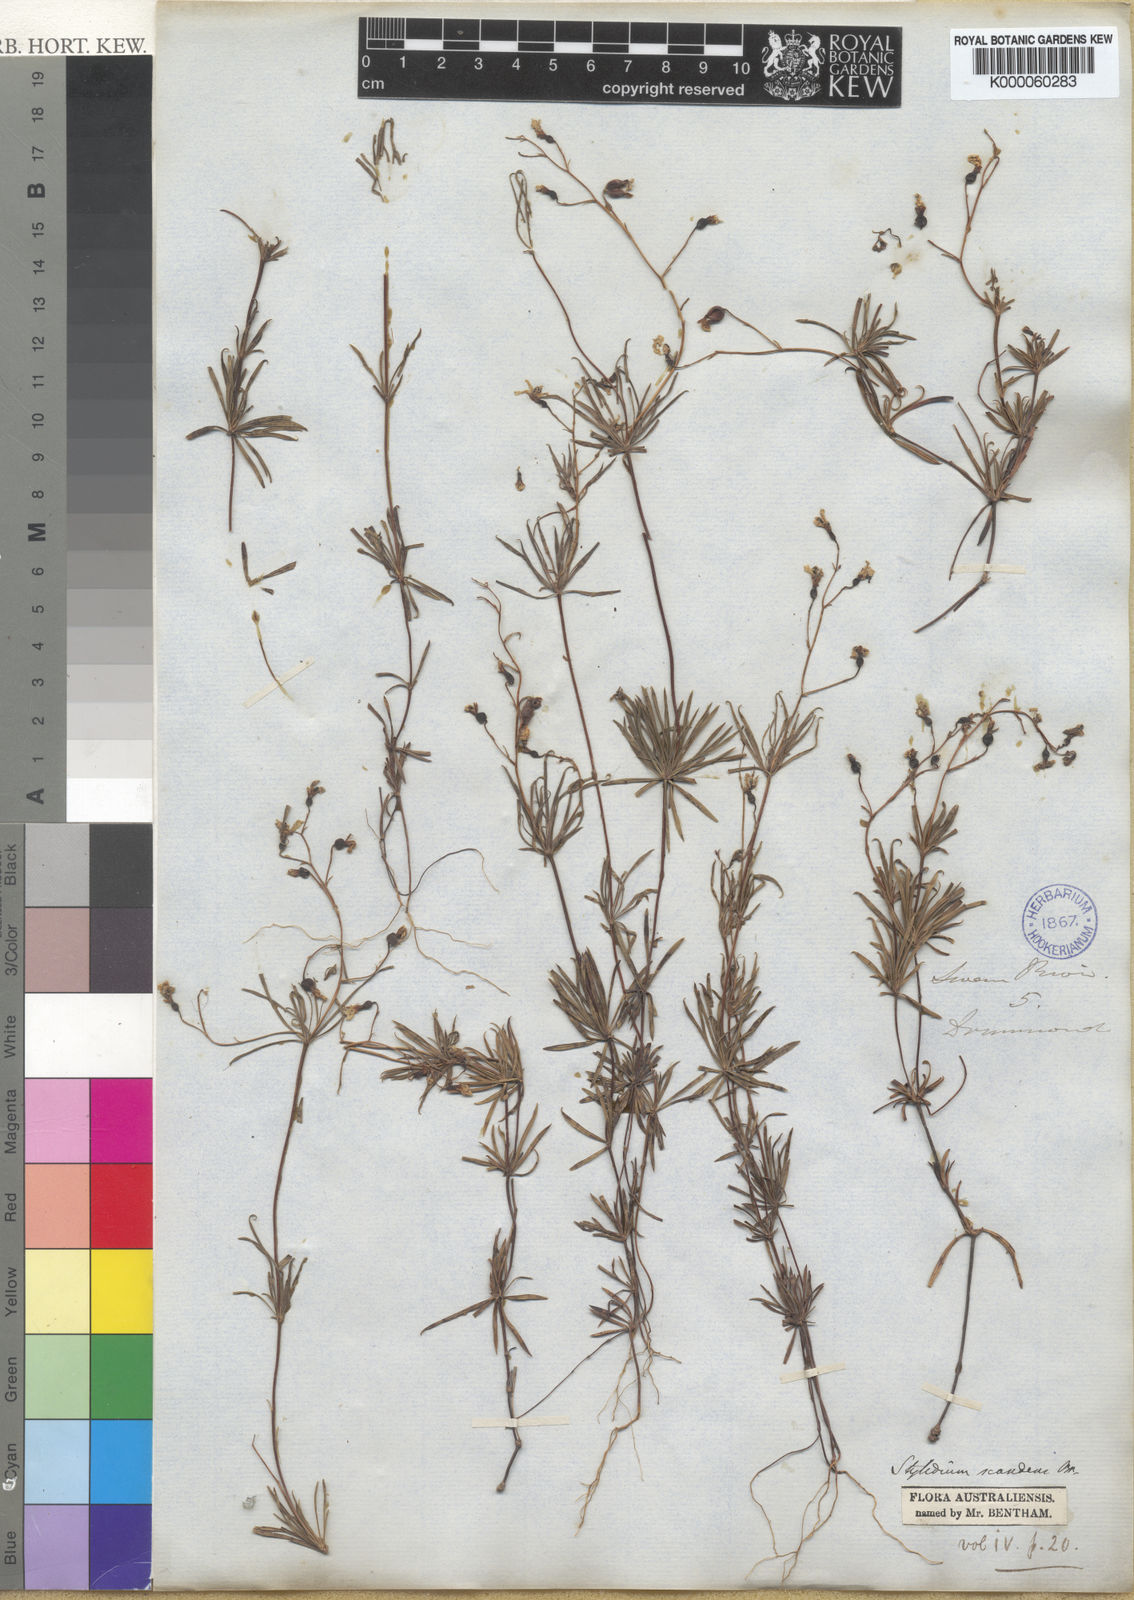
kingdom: Plantae
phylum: Tracheophyta
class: Magnoliopsida
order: Asterales
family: Stylidiaceae
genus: Stylidium
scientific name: Stylidium scandens
